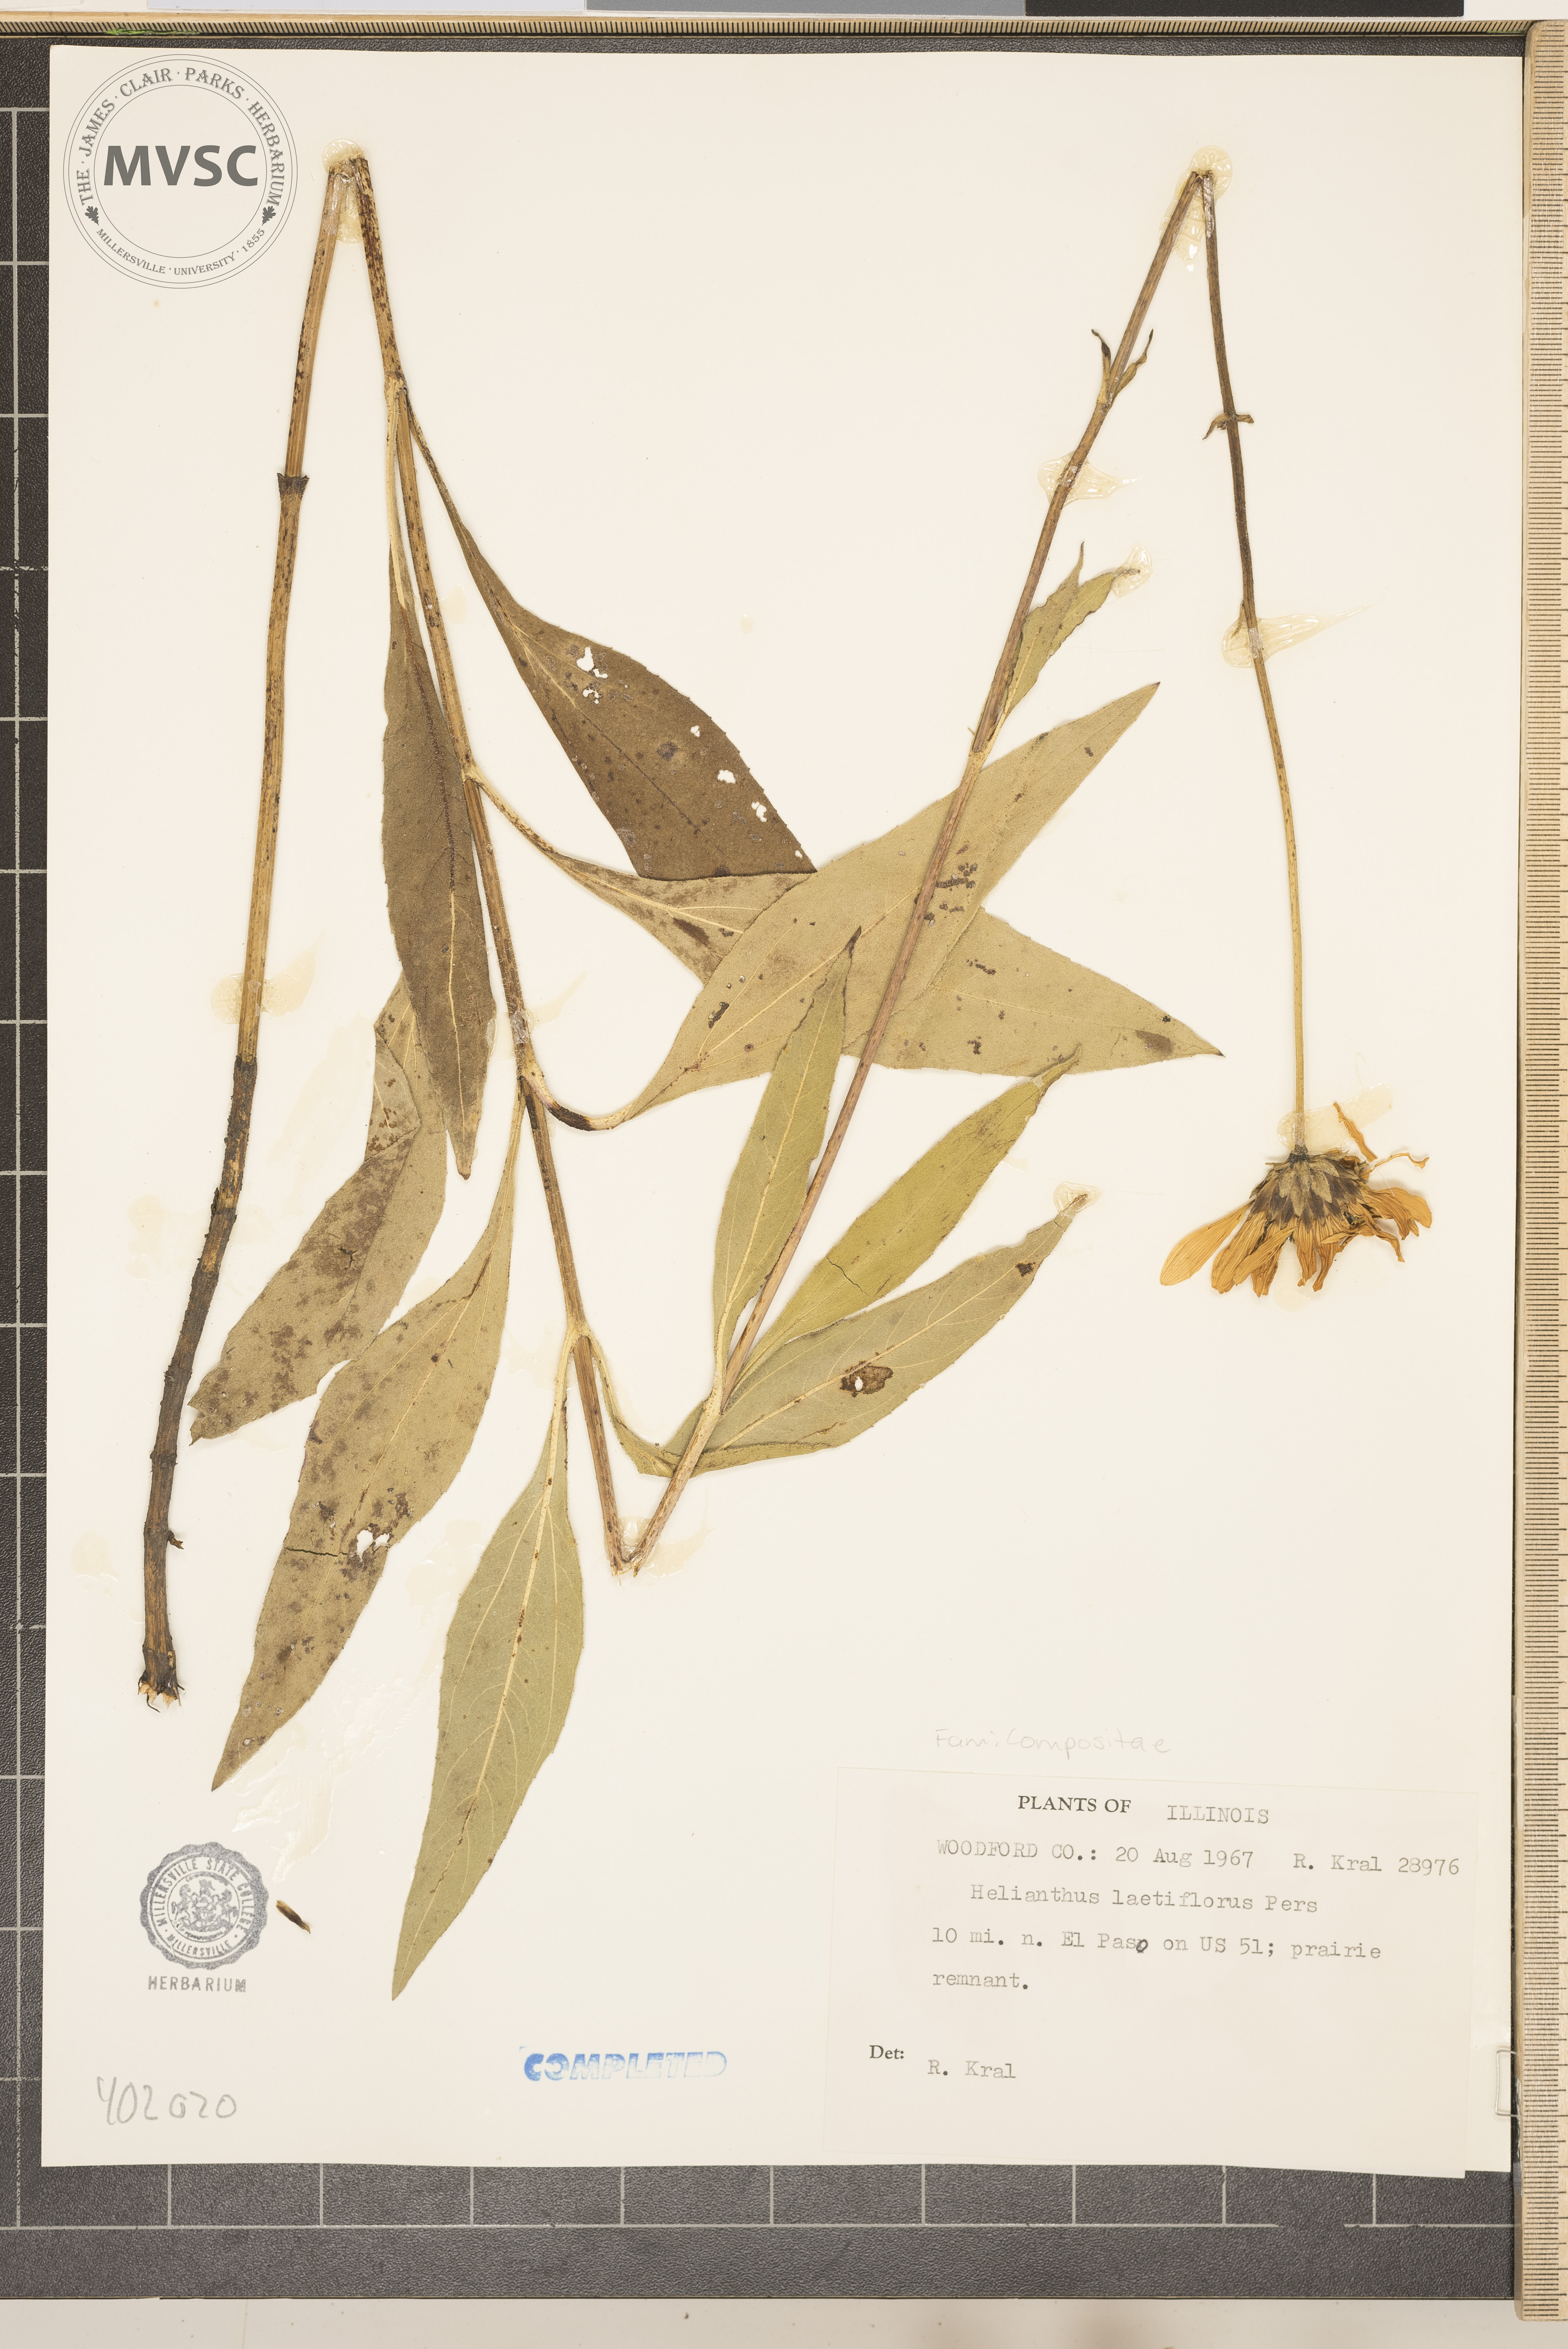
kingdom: Plantae
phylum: Tracheophyta
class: Magnoliopsida
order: Asterales
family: Asteraceae
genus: Helianthus
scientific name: Helianthus laetiflorus
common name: Cheerful sunflower
